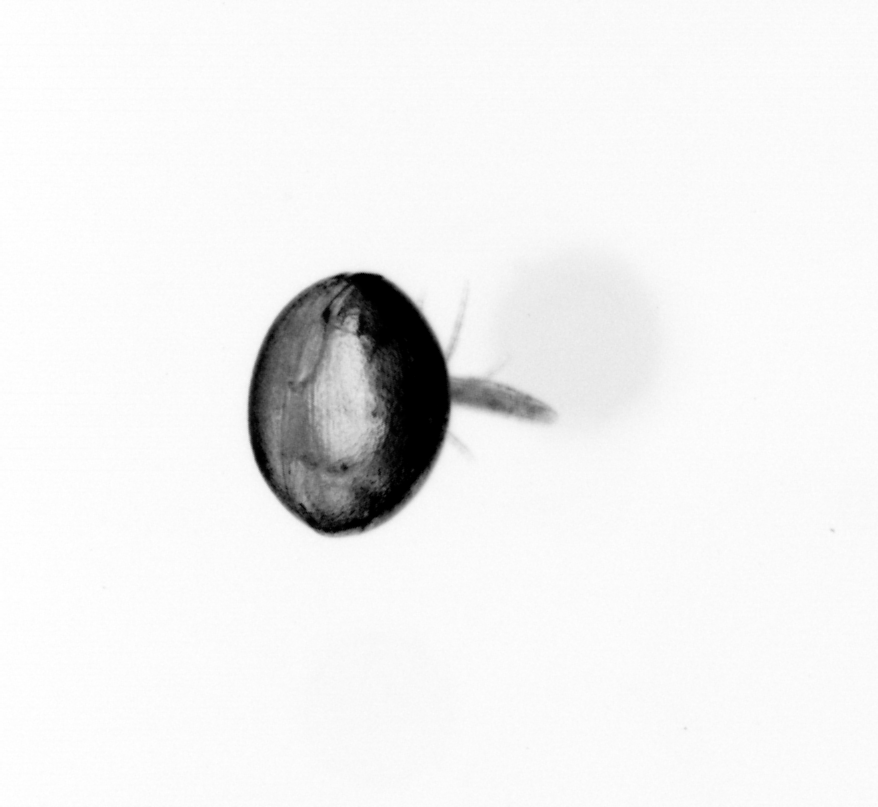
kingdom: Animalia
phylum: Arthropoda
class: Copepoda
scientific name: Copepoda
